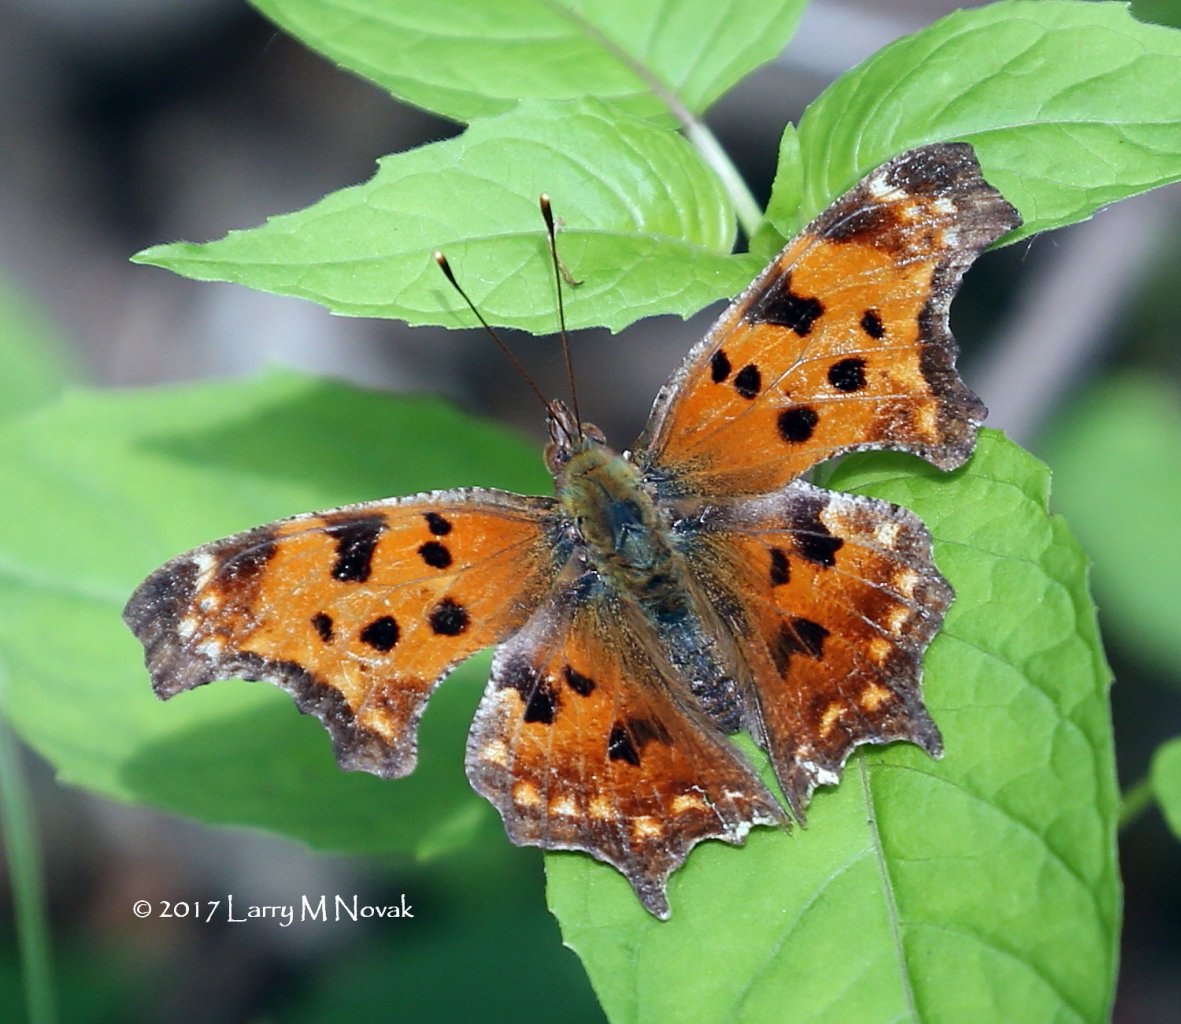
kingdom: Animalia
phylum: Arthropoda
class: Insecta
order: Lepidoptera
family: Nymphalidae
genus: Polygonia
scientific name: Polygonia comma
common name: Eastern Comma
